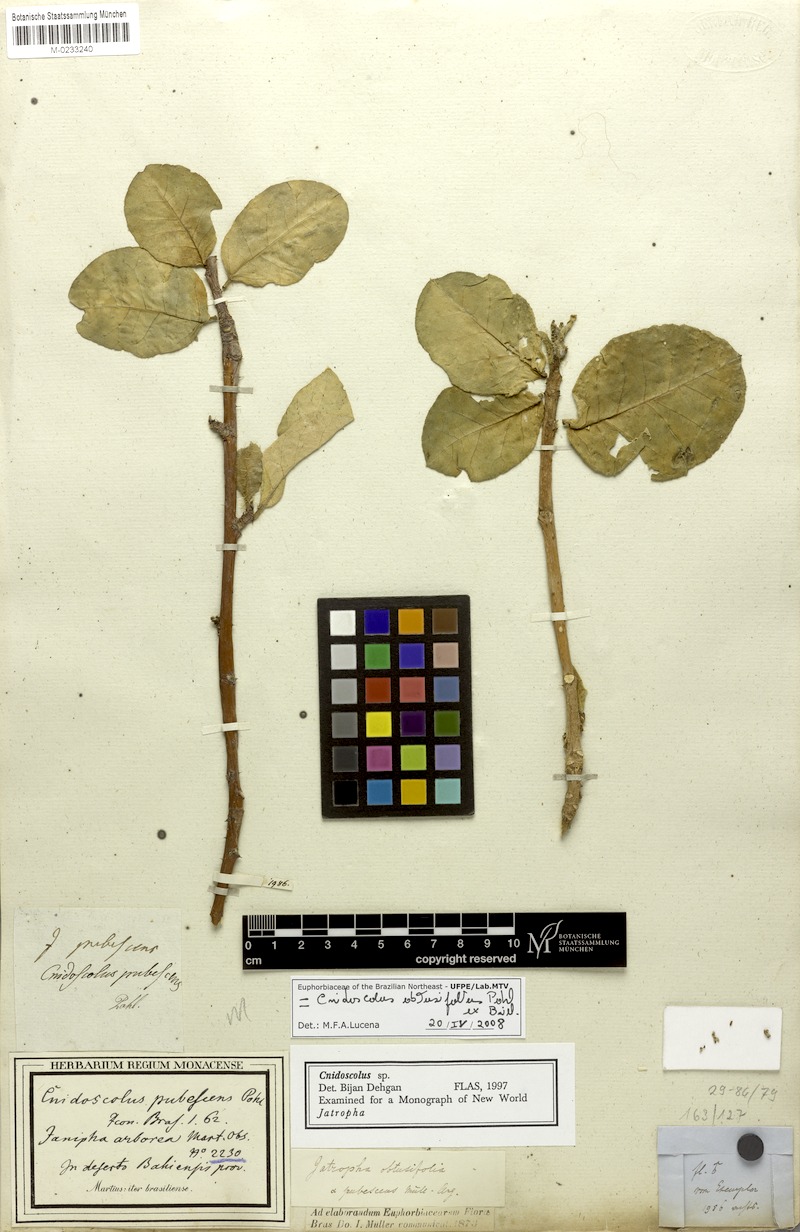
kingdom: Plantae
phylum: Tracheophyta
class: Magnoliopsida
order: Malpighiales
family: Euphorbiaceae
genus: Jatropha
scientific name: Jatropha mutabilis
